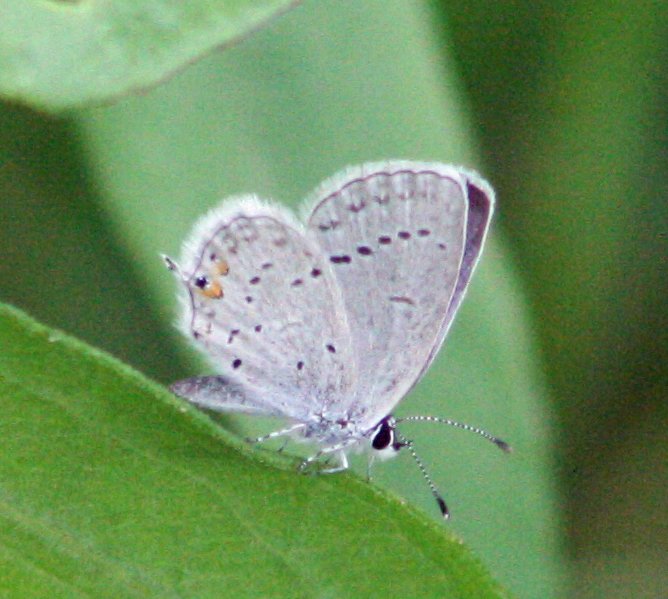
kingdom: Animalia
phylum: Arthropoda
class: Insecta
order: Lepidoptera
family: Lycaenidae
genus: Elkalyce
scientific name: Elkalyce comyntas
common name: Eastern Tailed-Blue
